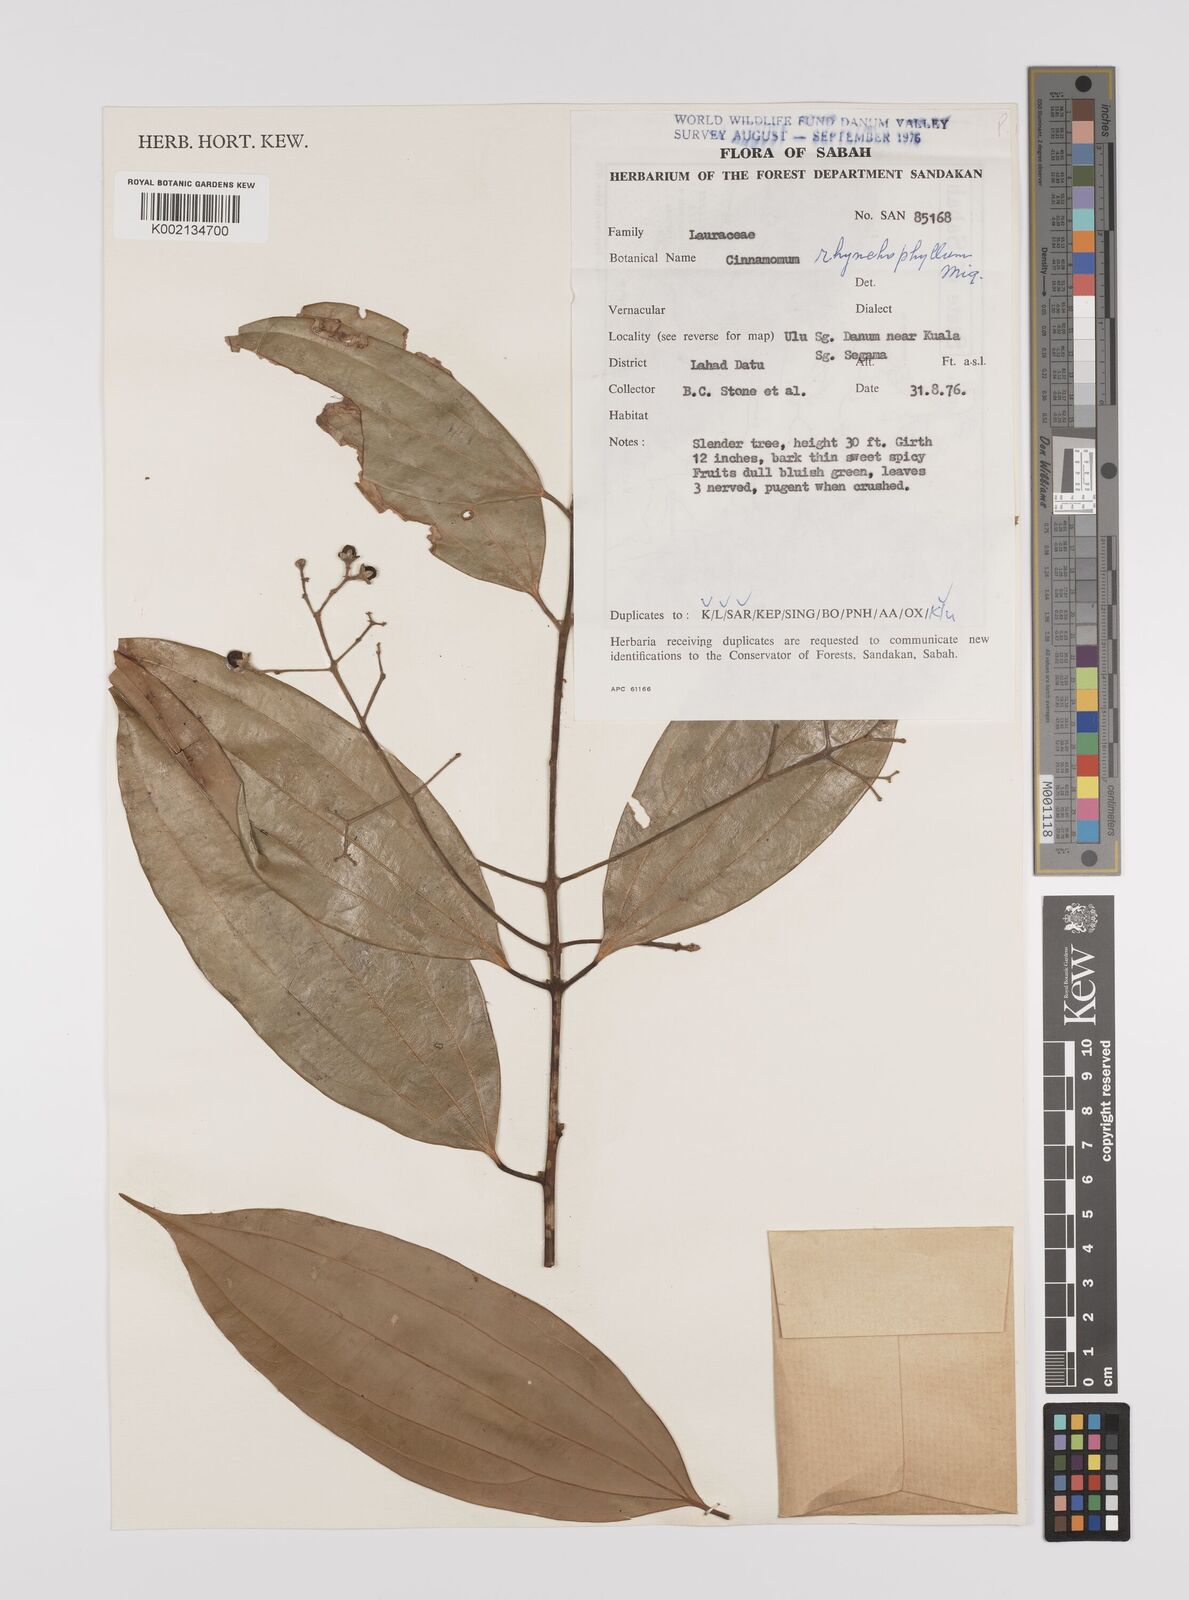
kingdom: Plantae
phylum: Tracheophyta
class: Magnoliopsida
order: Laurales
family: Lauraceae
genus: Cinnamomum
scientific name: Cinnamomum rhynchophyllum
